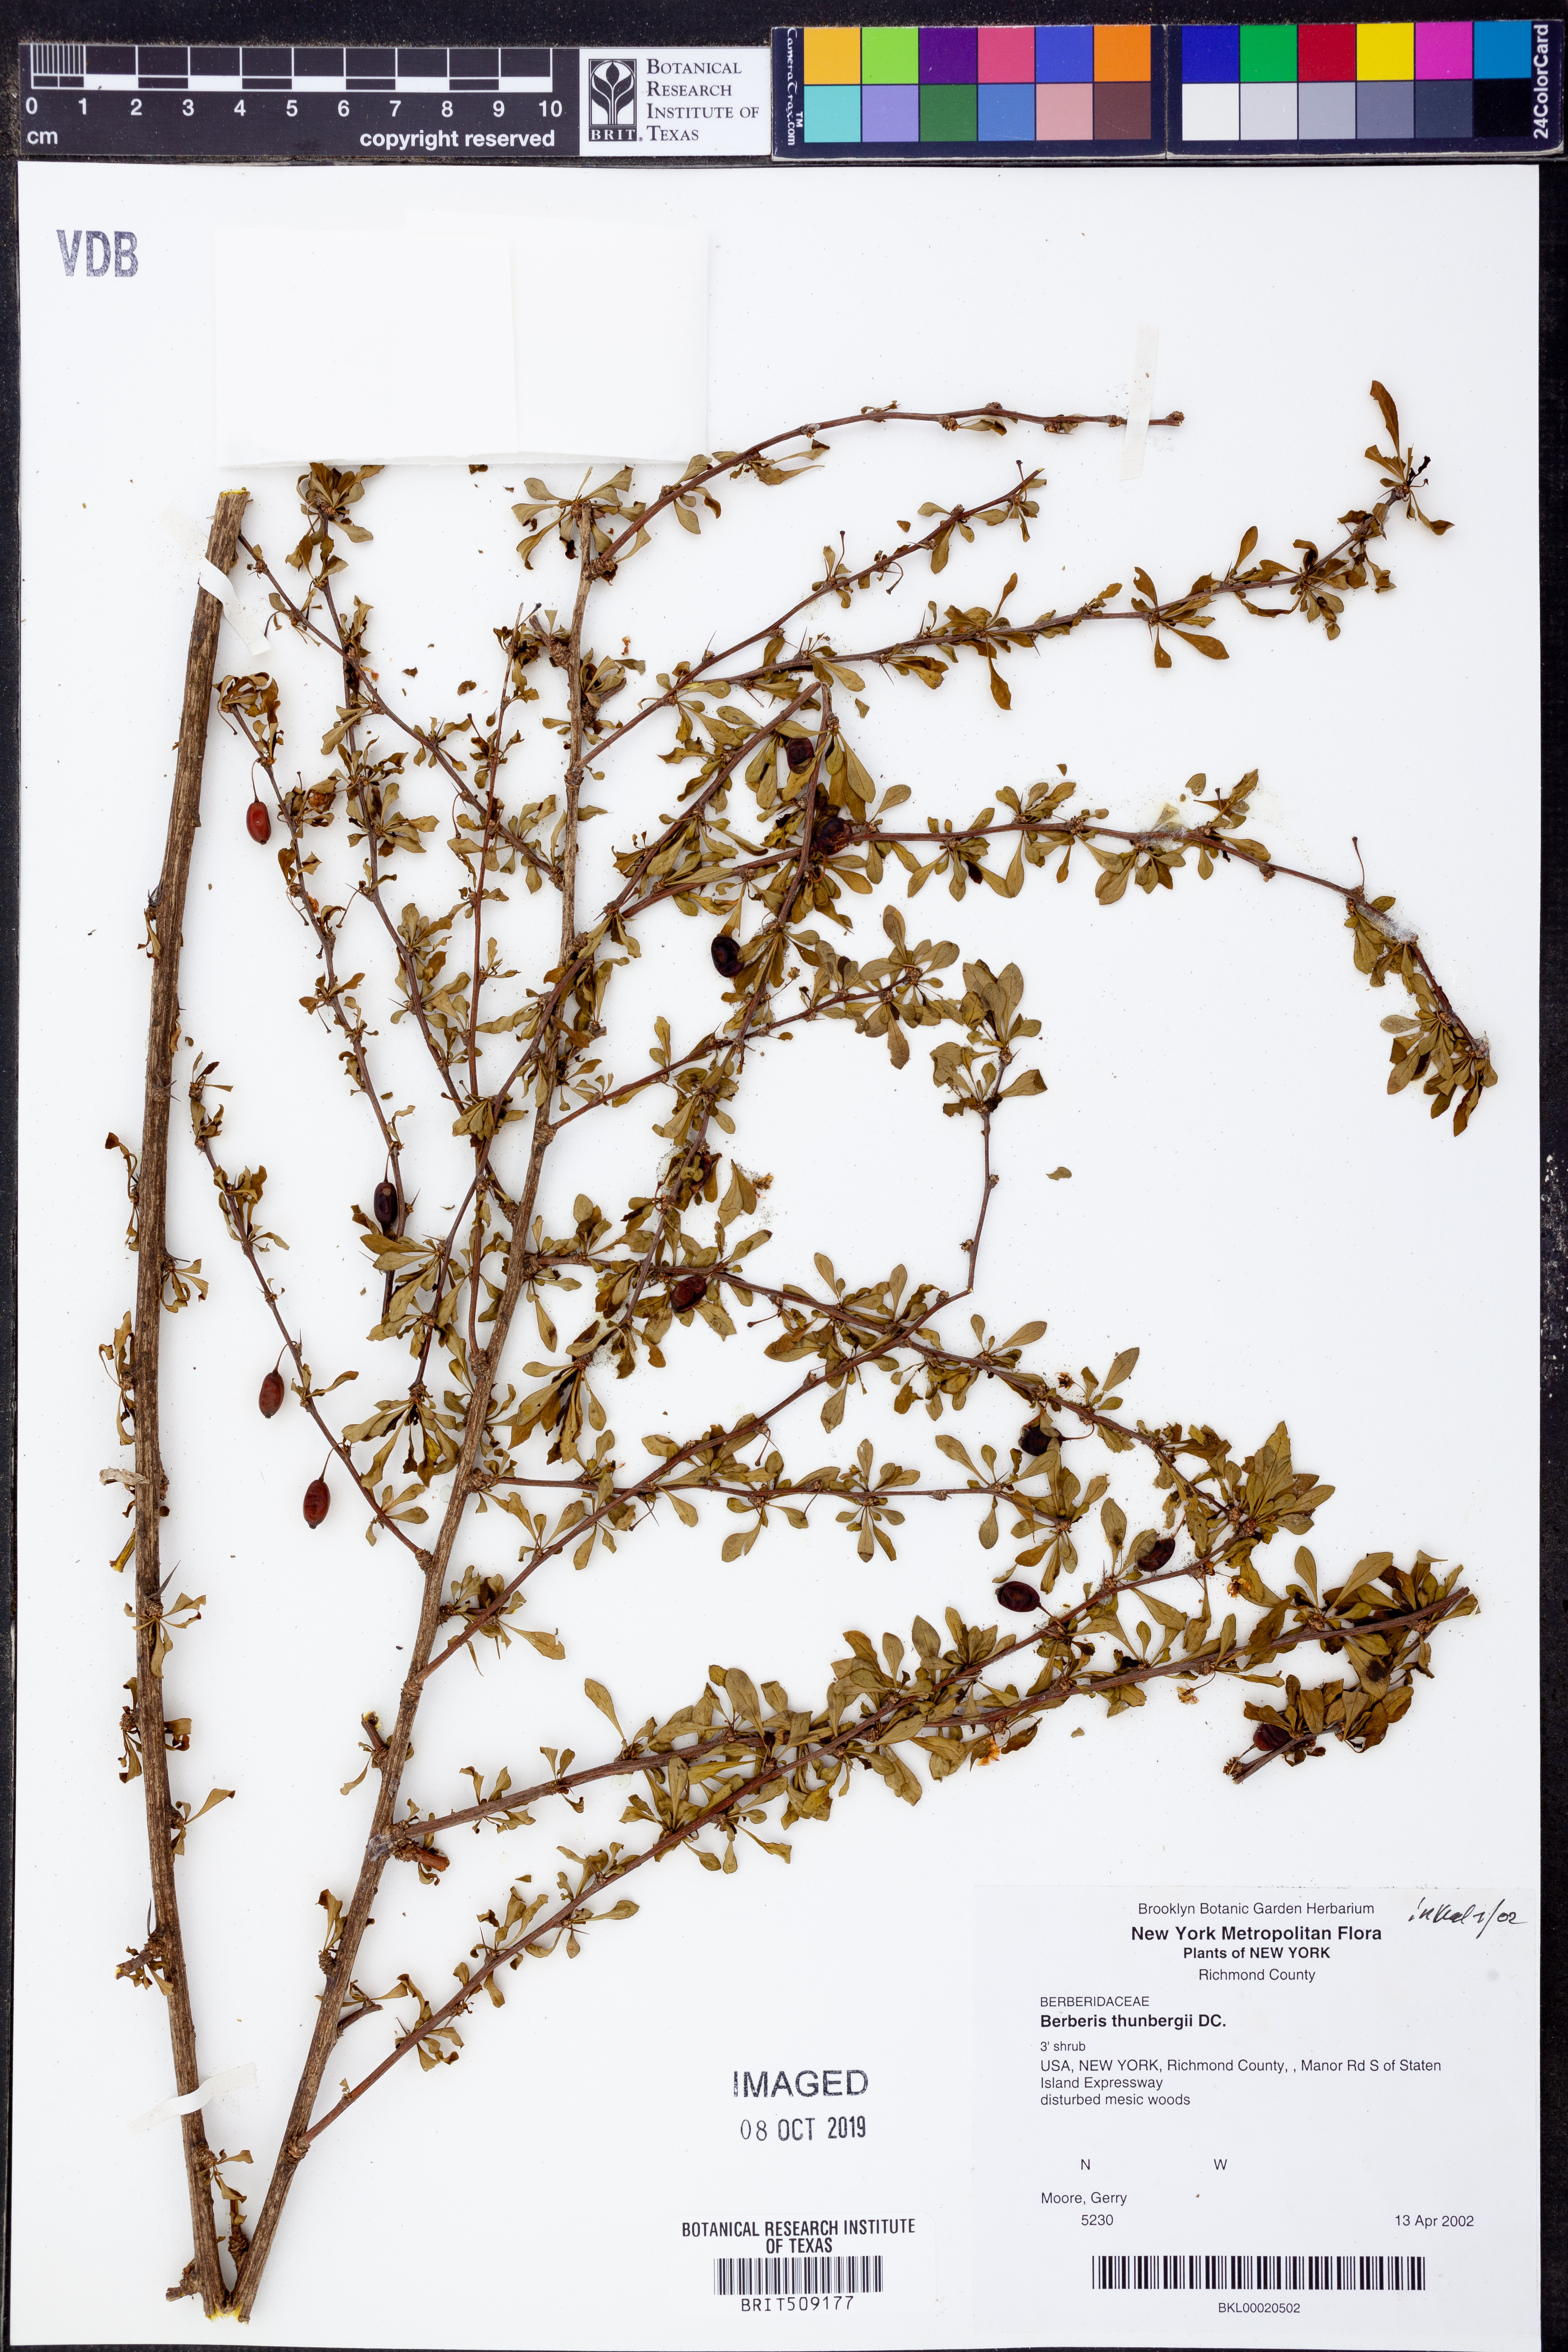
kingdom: Plantae
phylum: Tracheophyta
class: Magnoliopsida
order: Ranunculales
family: Berberidaceae
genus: Berberis
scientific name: Berberis thunbergii
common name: Japanese barberry
